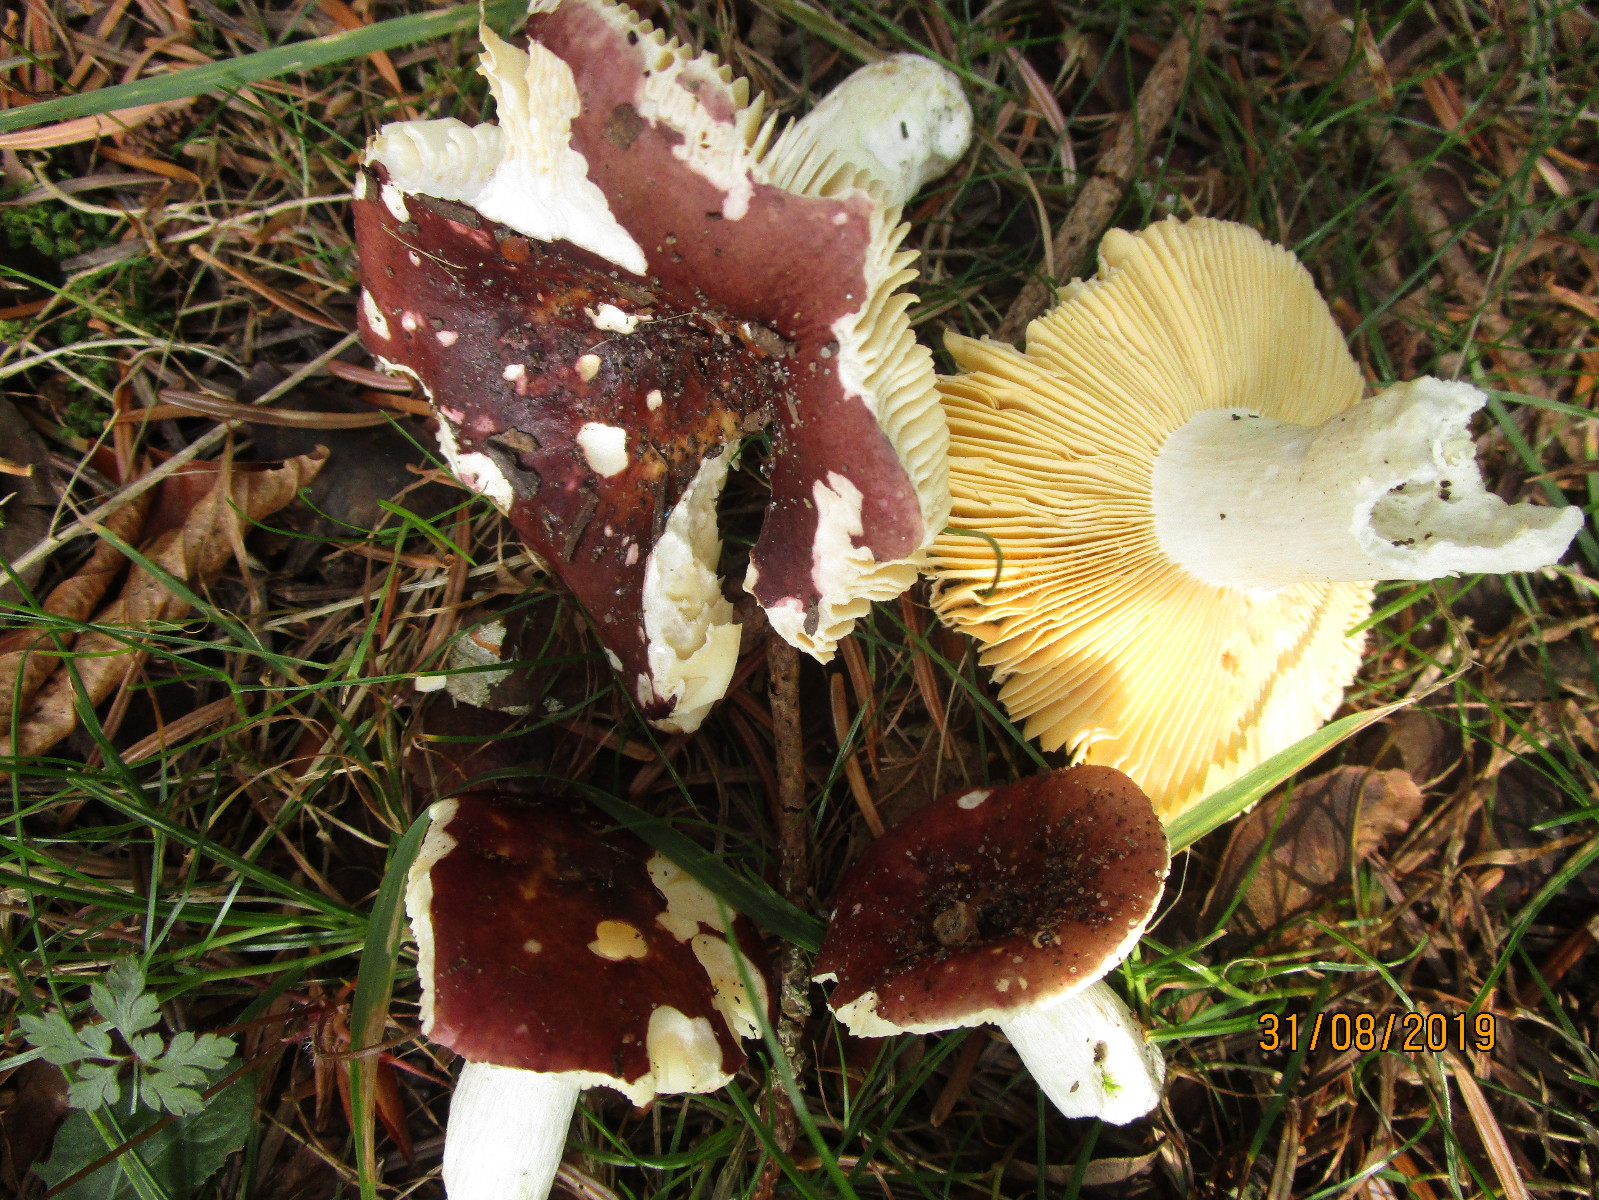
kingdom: Fungi
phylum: Basidiomycota
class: Agaricomycetes
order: Russulales
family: Russulaceae
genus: Russula
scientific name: Russula integra
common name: mandel-skørhat
